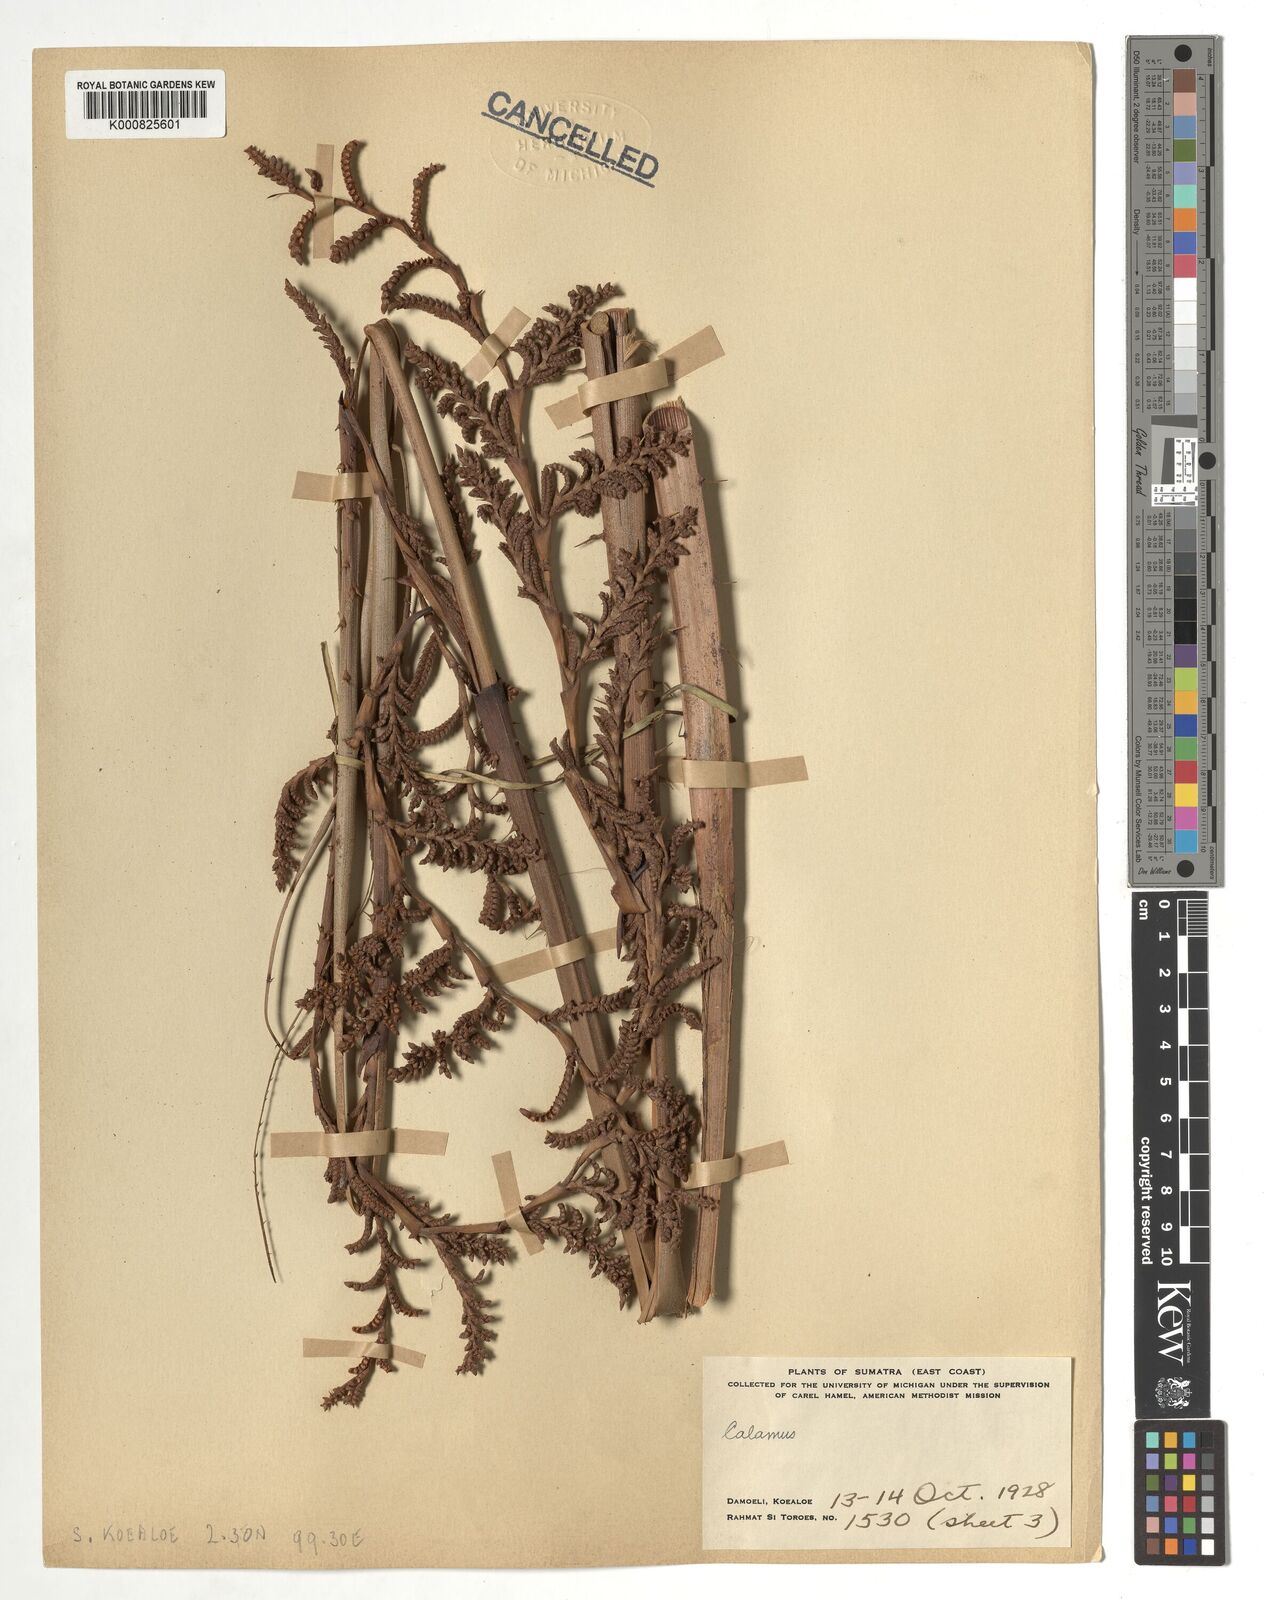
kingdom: Plantae
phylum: Tracheophyta
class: Liliopsida
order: Arecales
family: Arecaceae
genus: Calamus
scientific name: Calamus
